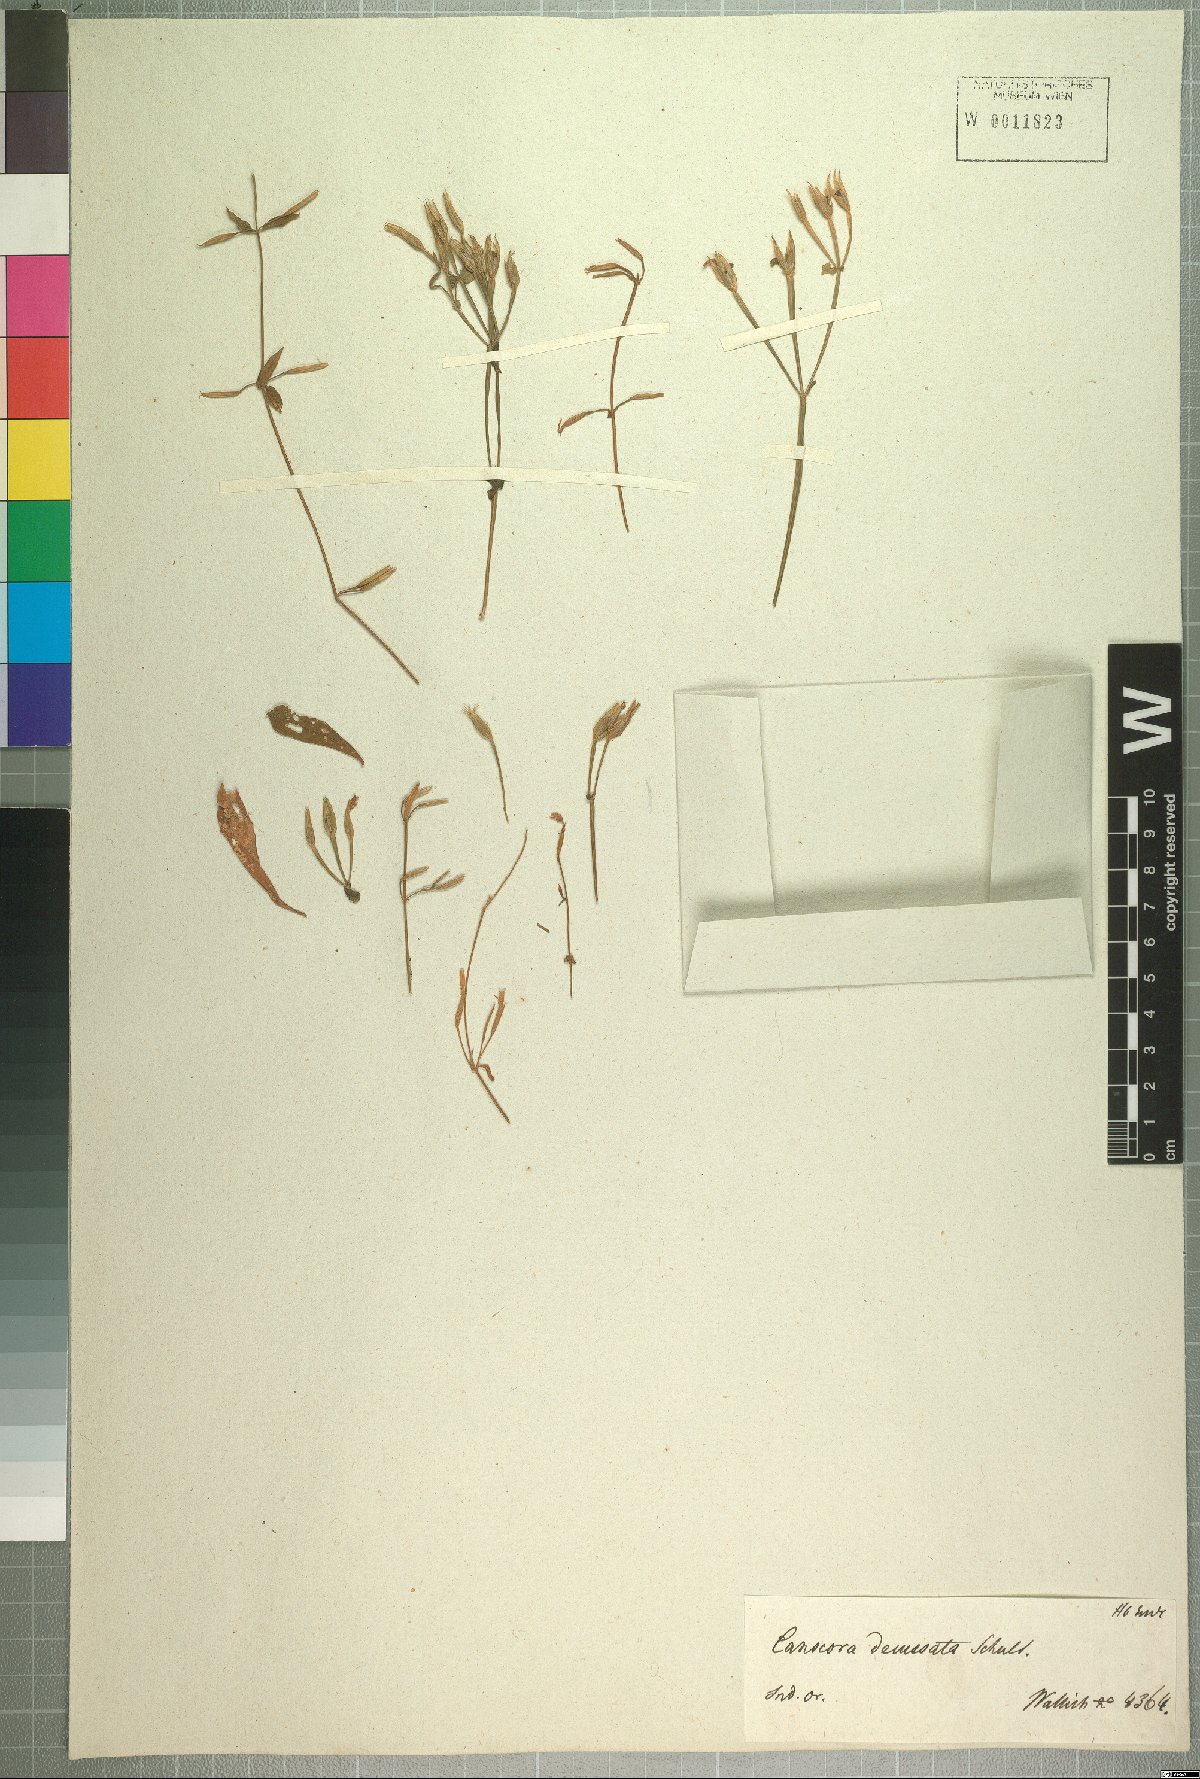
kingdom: Plantae
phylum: Tracheophyta
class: Magnoliopsida
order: Gentianales
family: Gentianaceae
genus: Canscora
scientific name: Canscora alata
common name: Canscora
